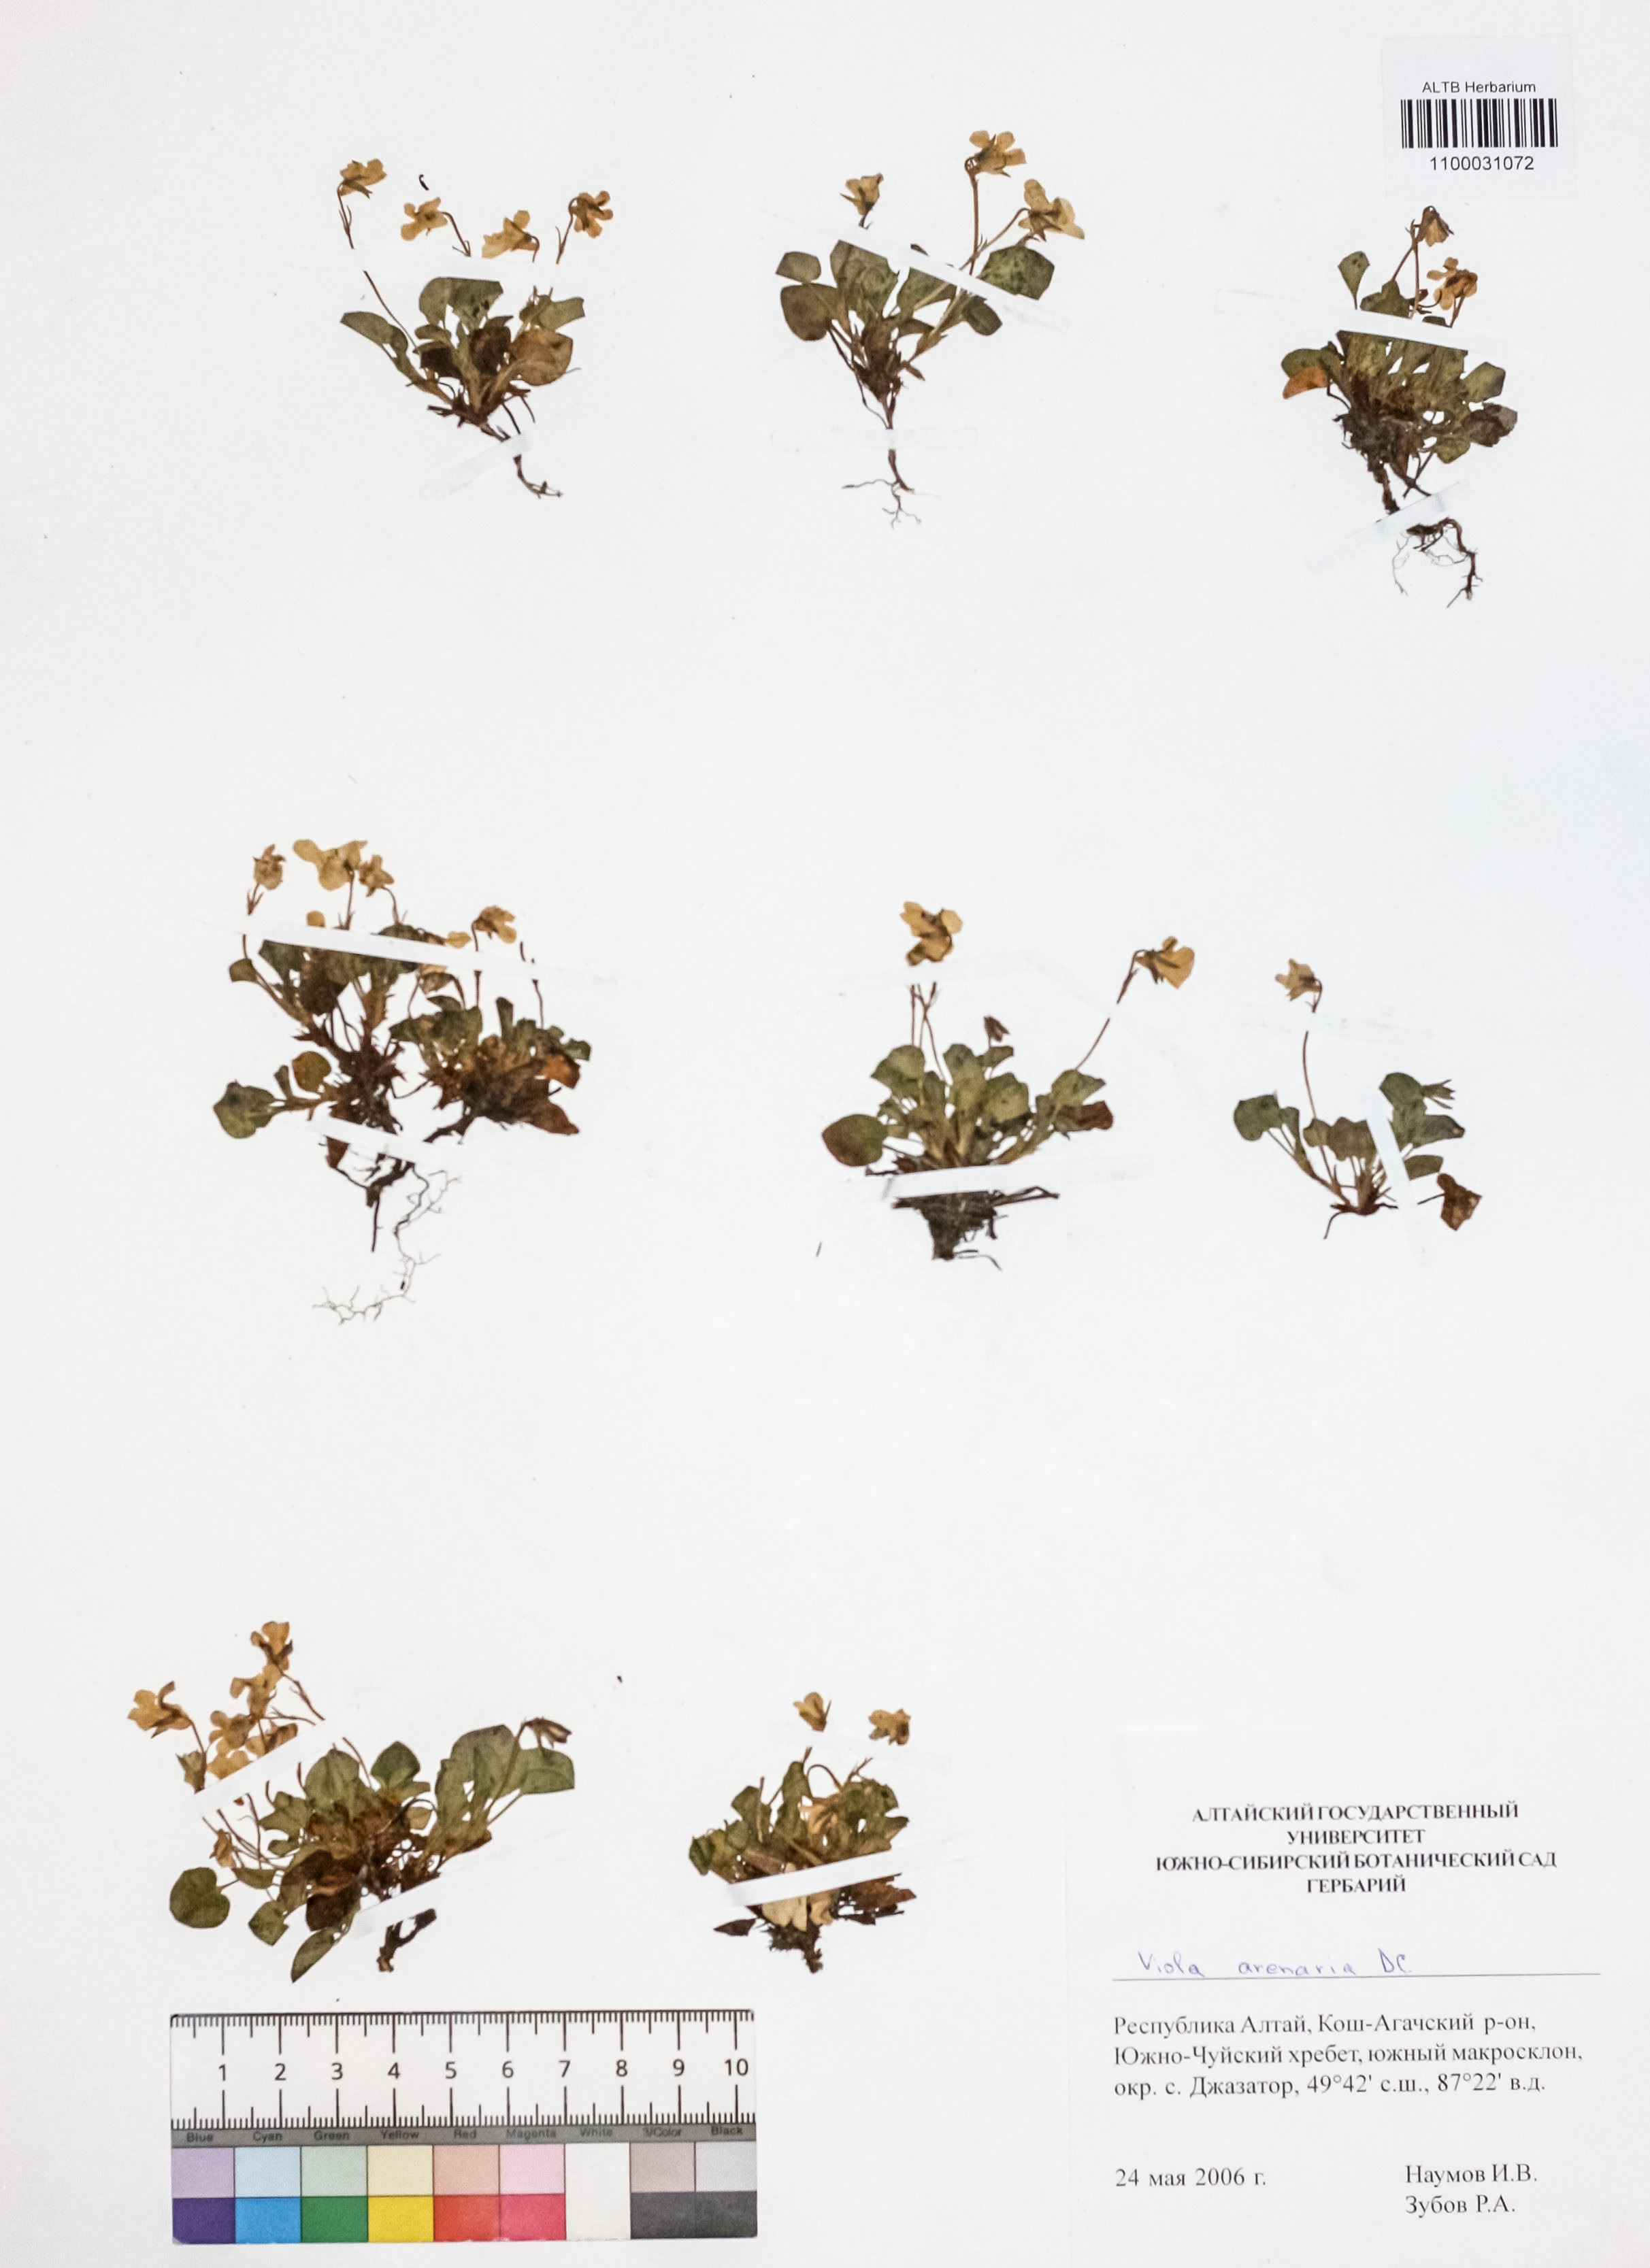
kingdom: Plantae
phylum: Tracheophyta
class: Magnoliopsida
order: Malpighiales
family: Violaceae
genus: Viola
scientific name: Viola rupestris
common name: Teesdale violet
